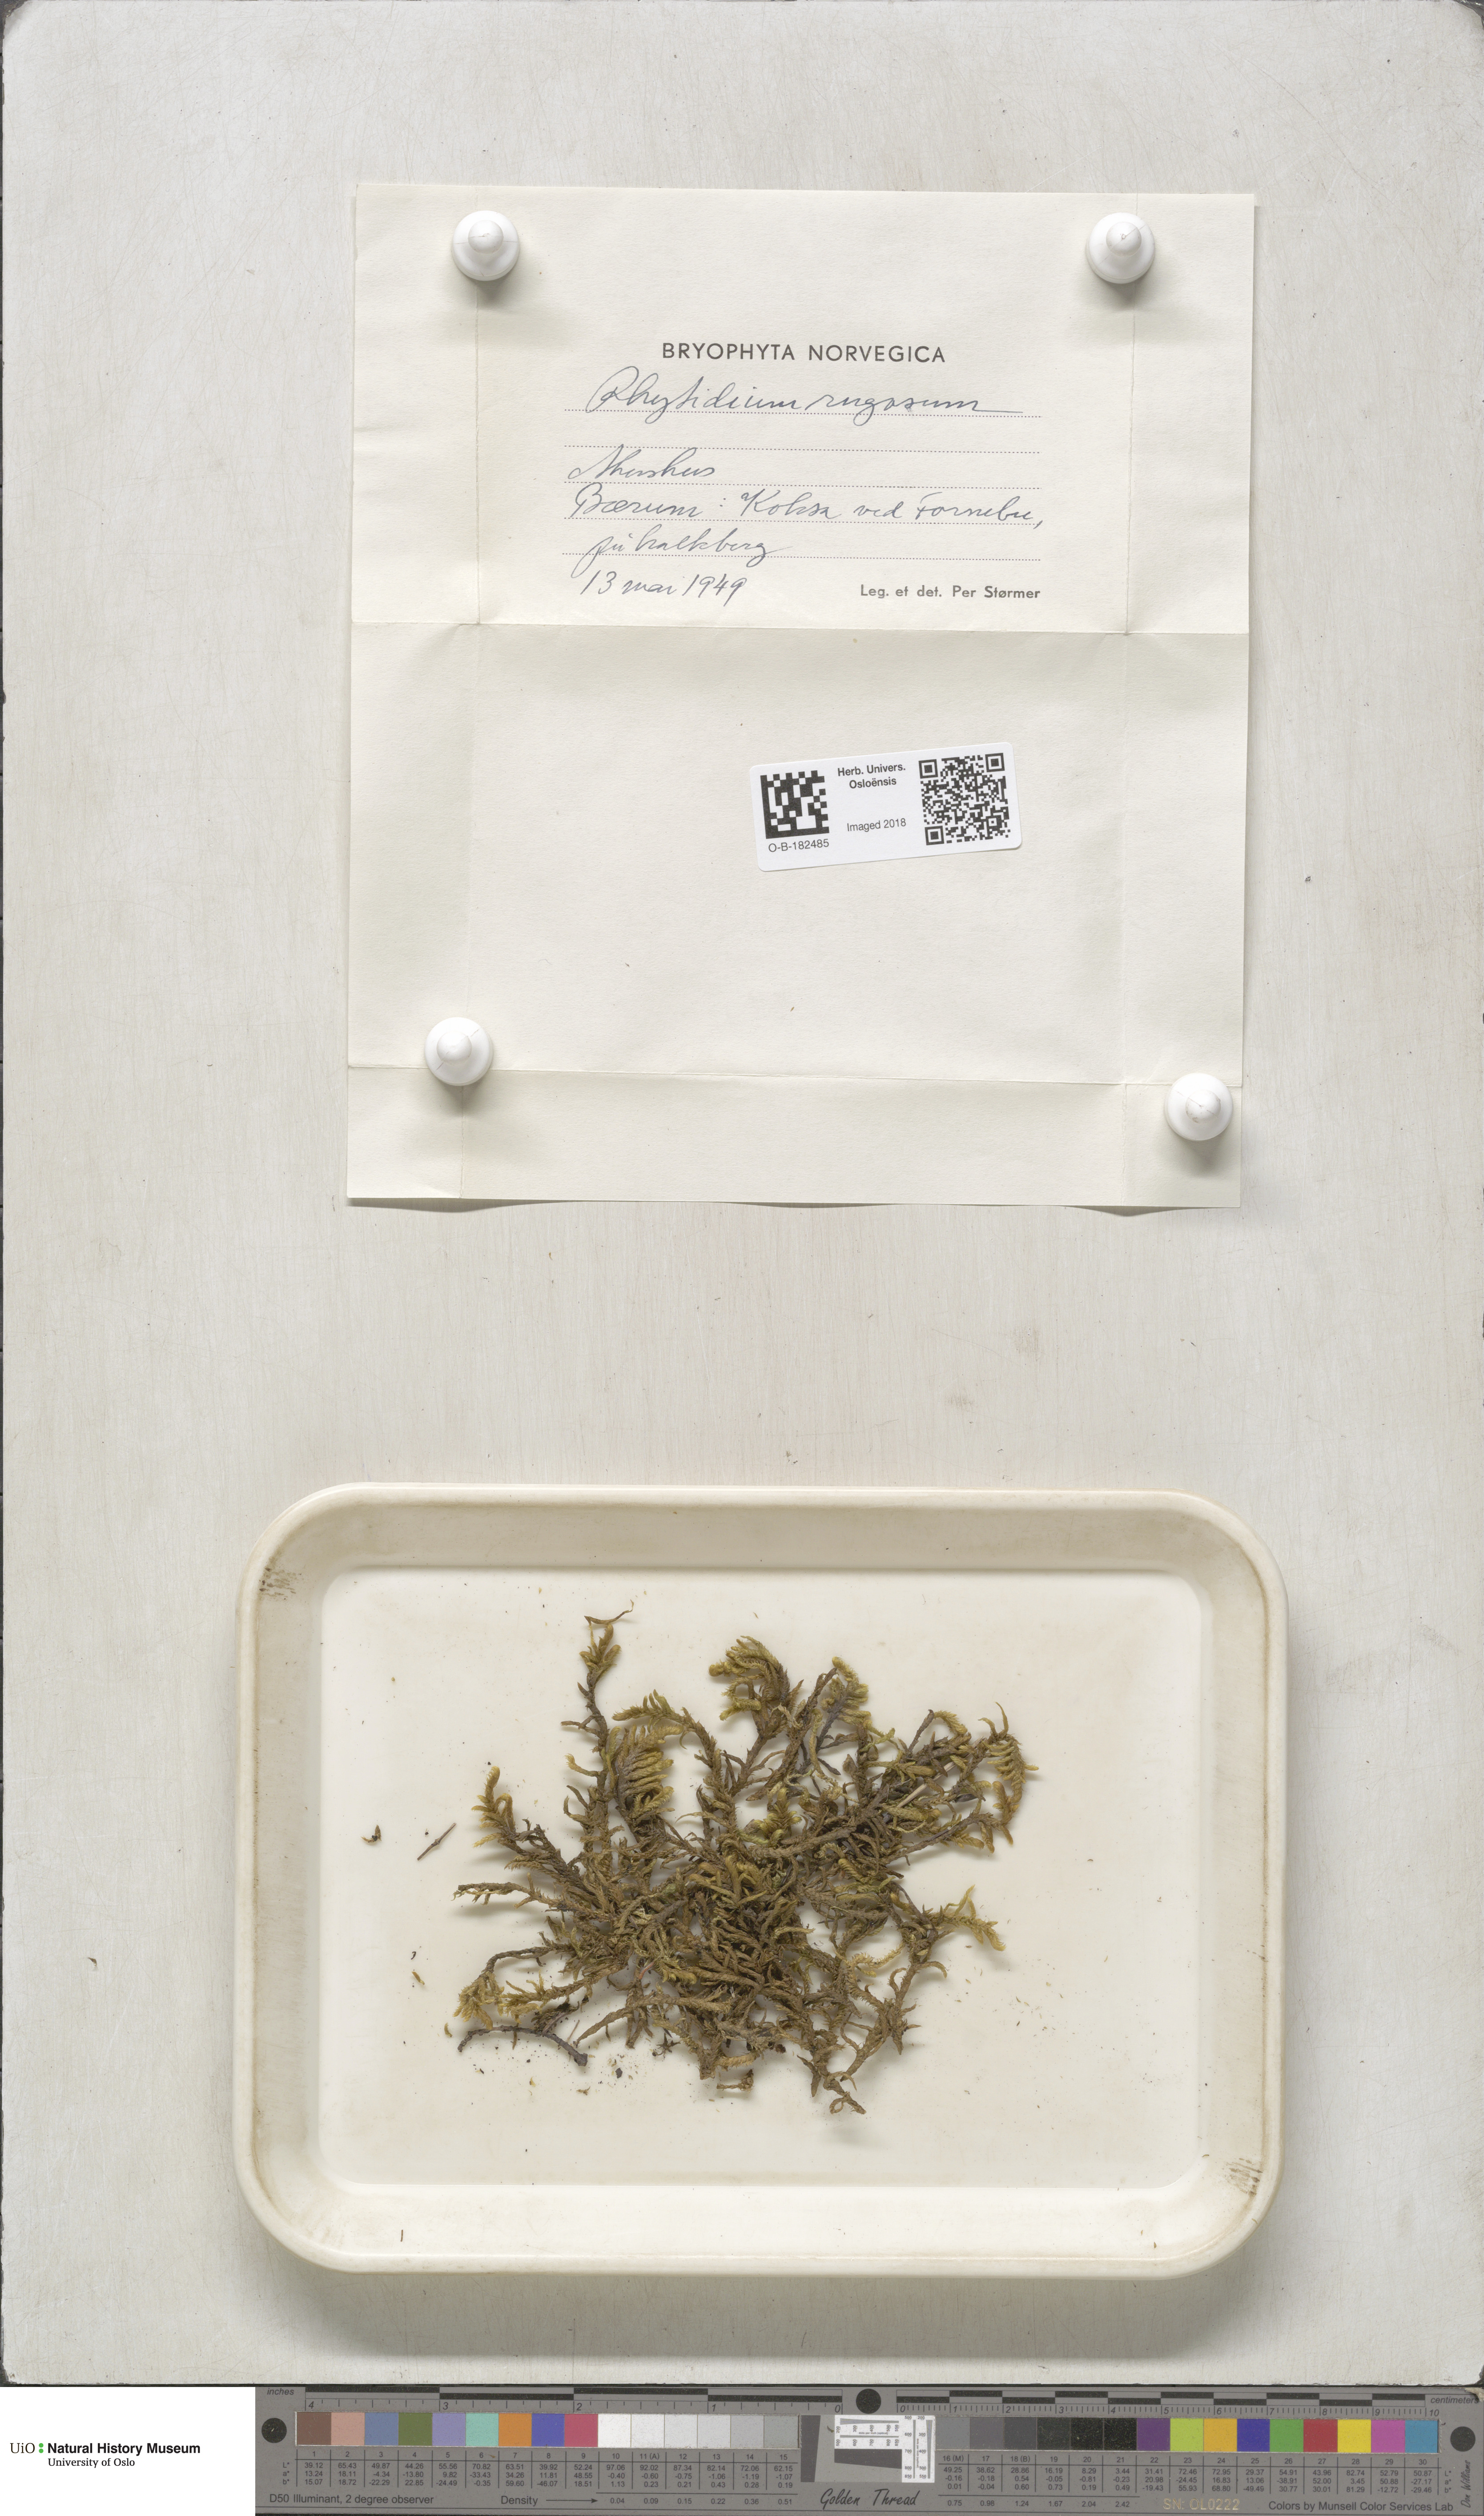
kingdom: Plantae
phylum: Bryophyta
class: Bryopsida
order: Hypnales
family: Rhytidiaceae
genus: Rhytidium
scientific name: Rhytidium rugosum
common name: Wrinkle-leaved moss
